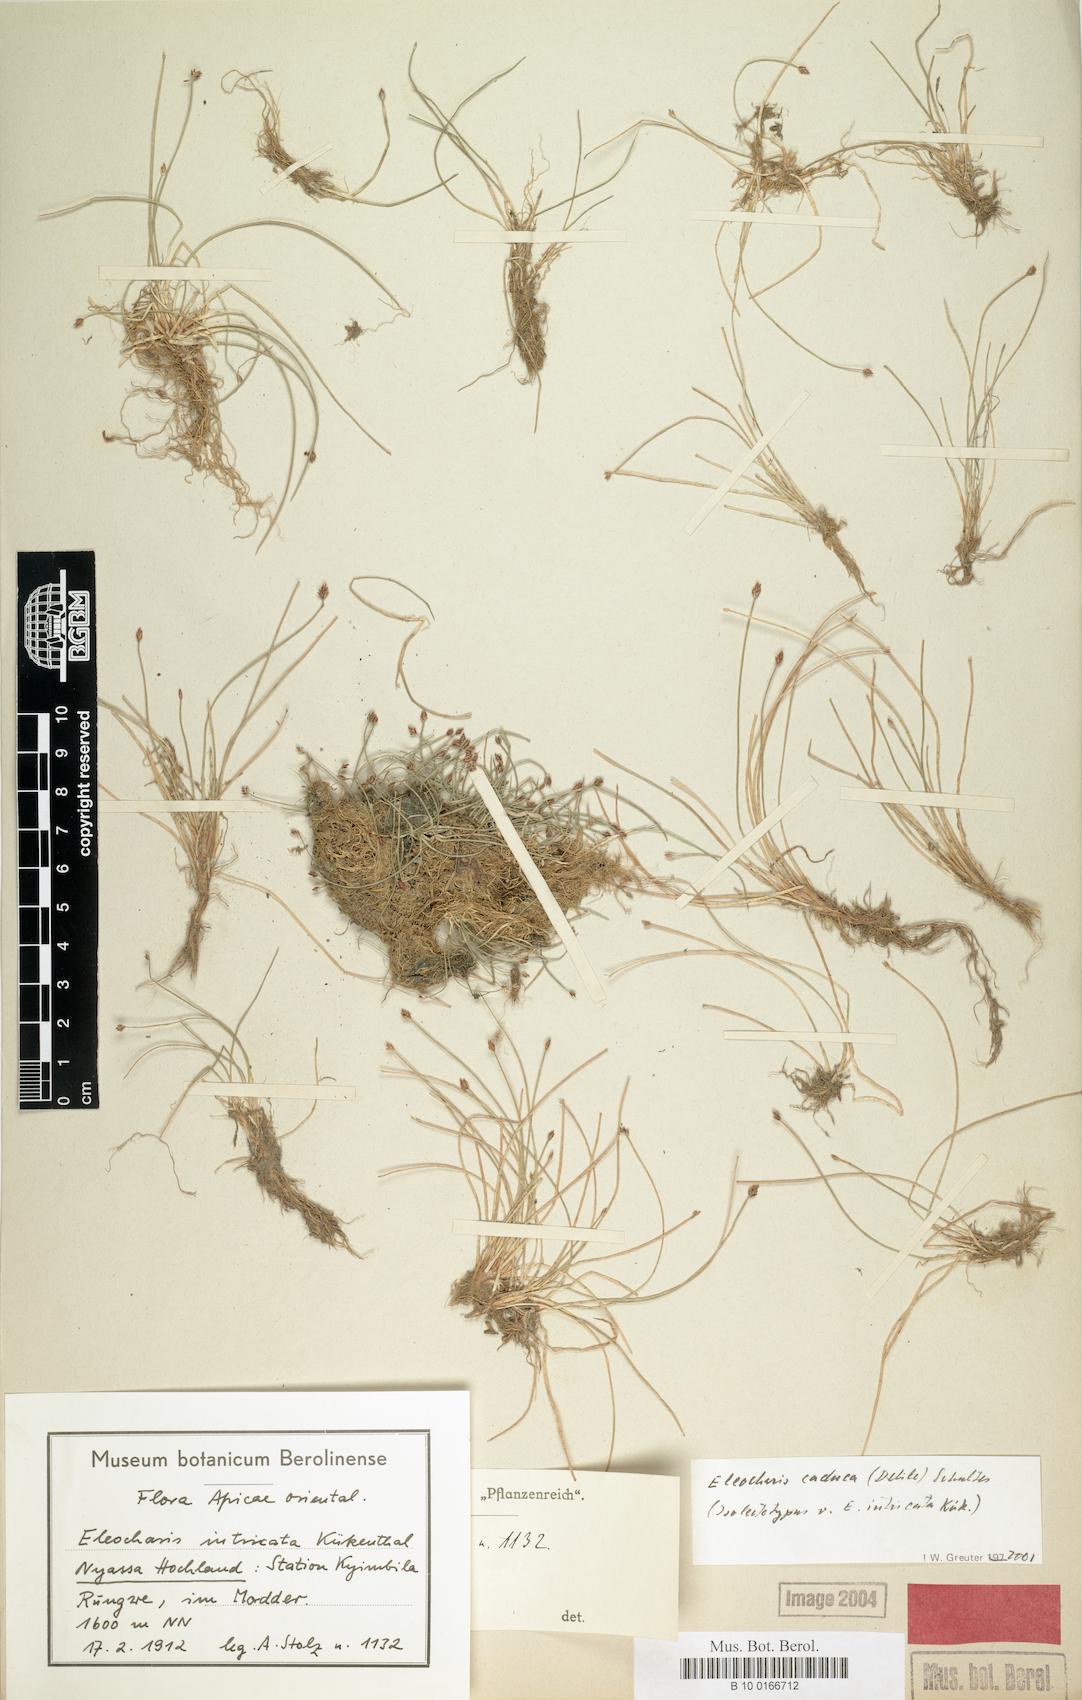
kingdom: Plantae
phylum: Tracheophyta
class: Liliopsida
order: Poales
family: Cyperaceae
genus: Eleocharis
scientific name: Eleocharis caduca
